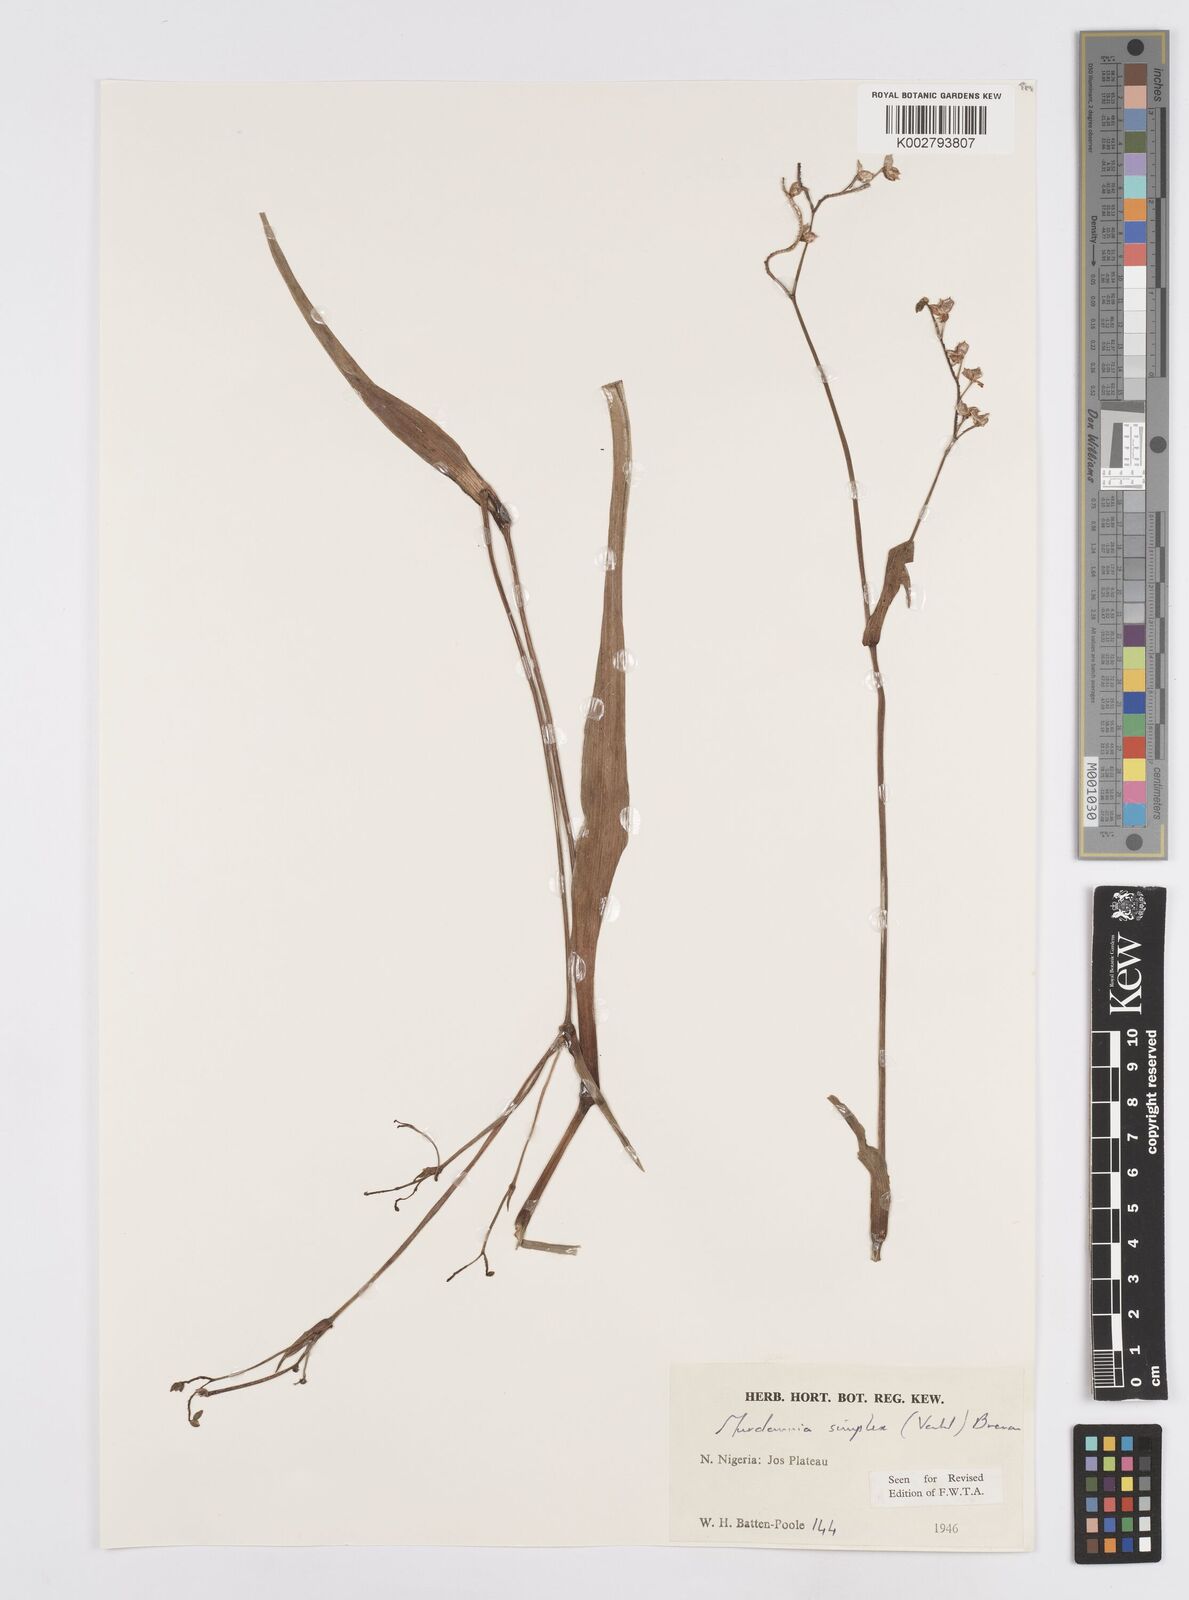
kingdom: Plantae
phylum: Tracheophyta
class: Liliopsida
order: Commelinales
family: Commelinaceae
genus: Murdannia
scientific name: Murdannia simplex
